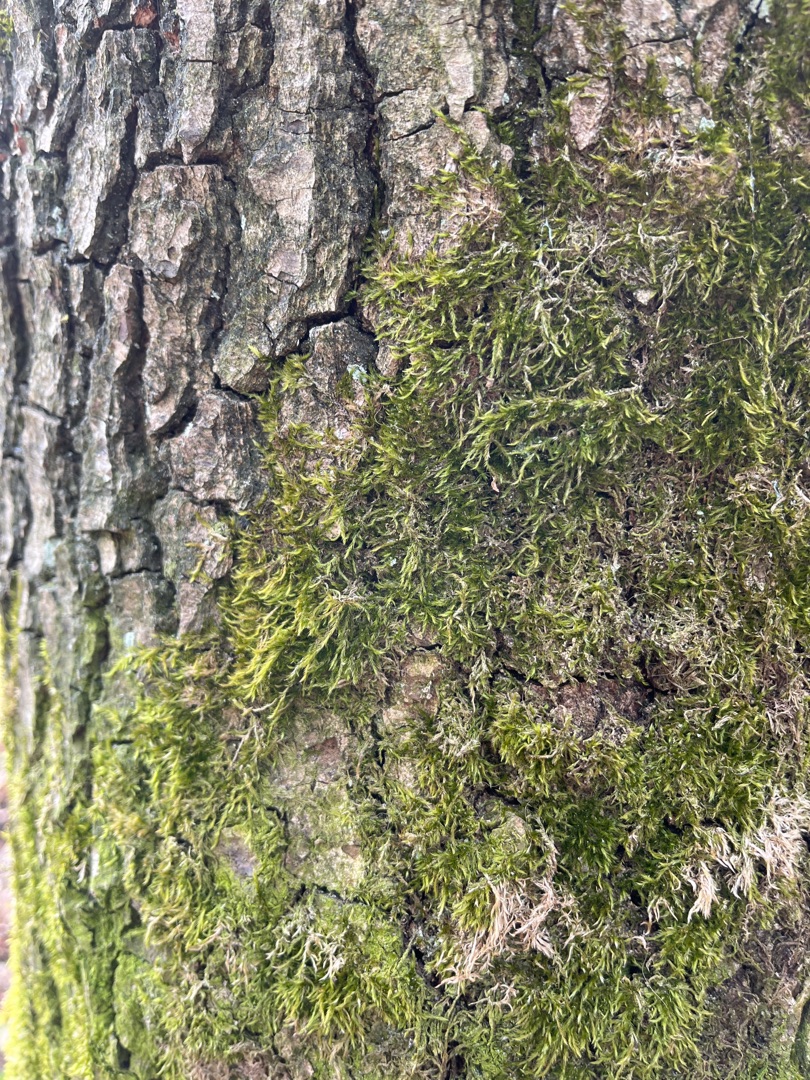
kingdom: Plantae
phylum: Bryophyta
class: Bryopsida
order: Hypnales
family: Hypnaceae
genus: Hypnum
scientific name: Hypnum
